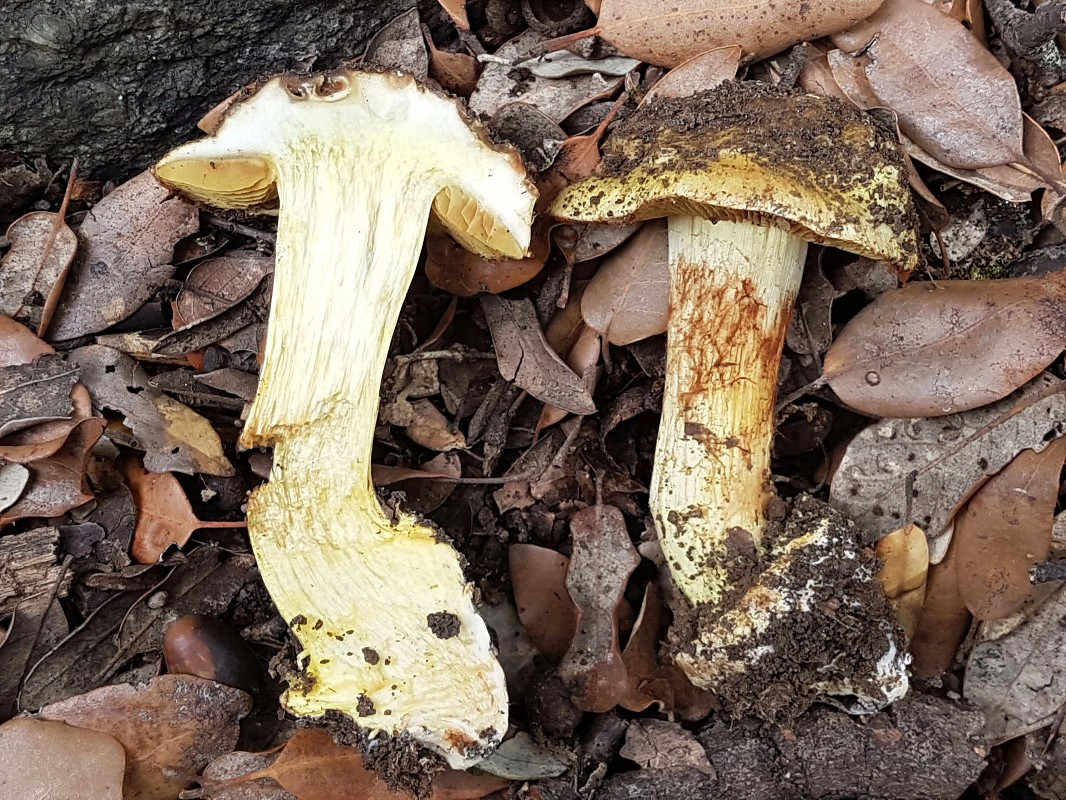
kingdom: Fungi
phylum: Basidiomycota
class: Agaricomycetes
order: Agaricales
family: Cortinariaceae
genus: Calonarius
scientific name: Calonarius xanthochlorus
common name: gulgrøn slørhat
